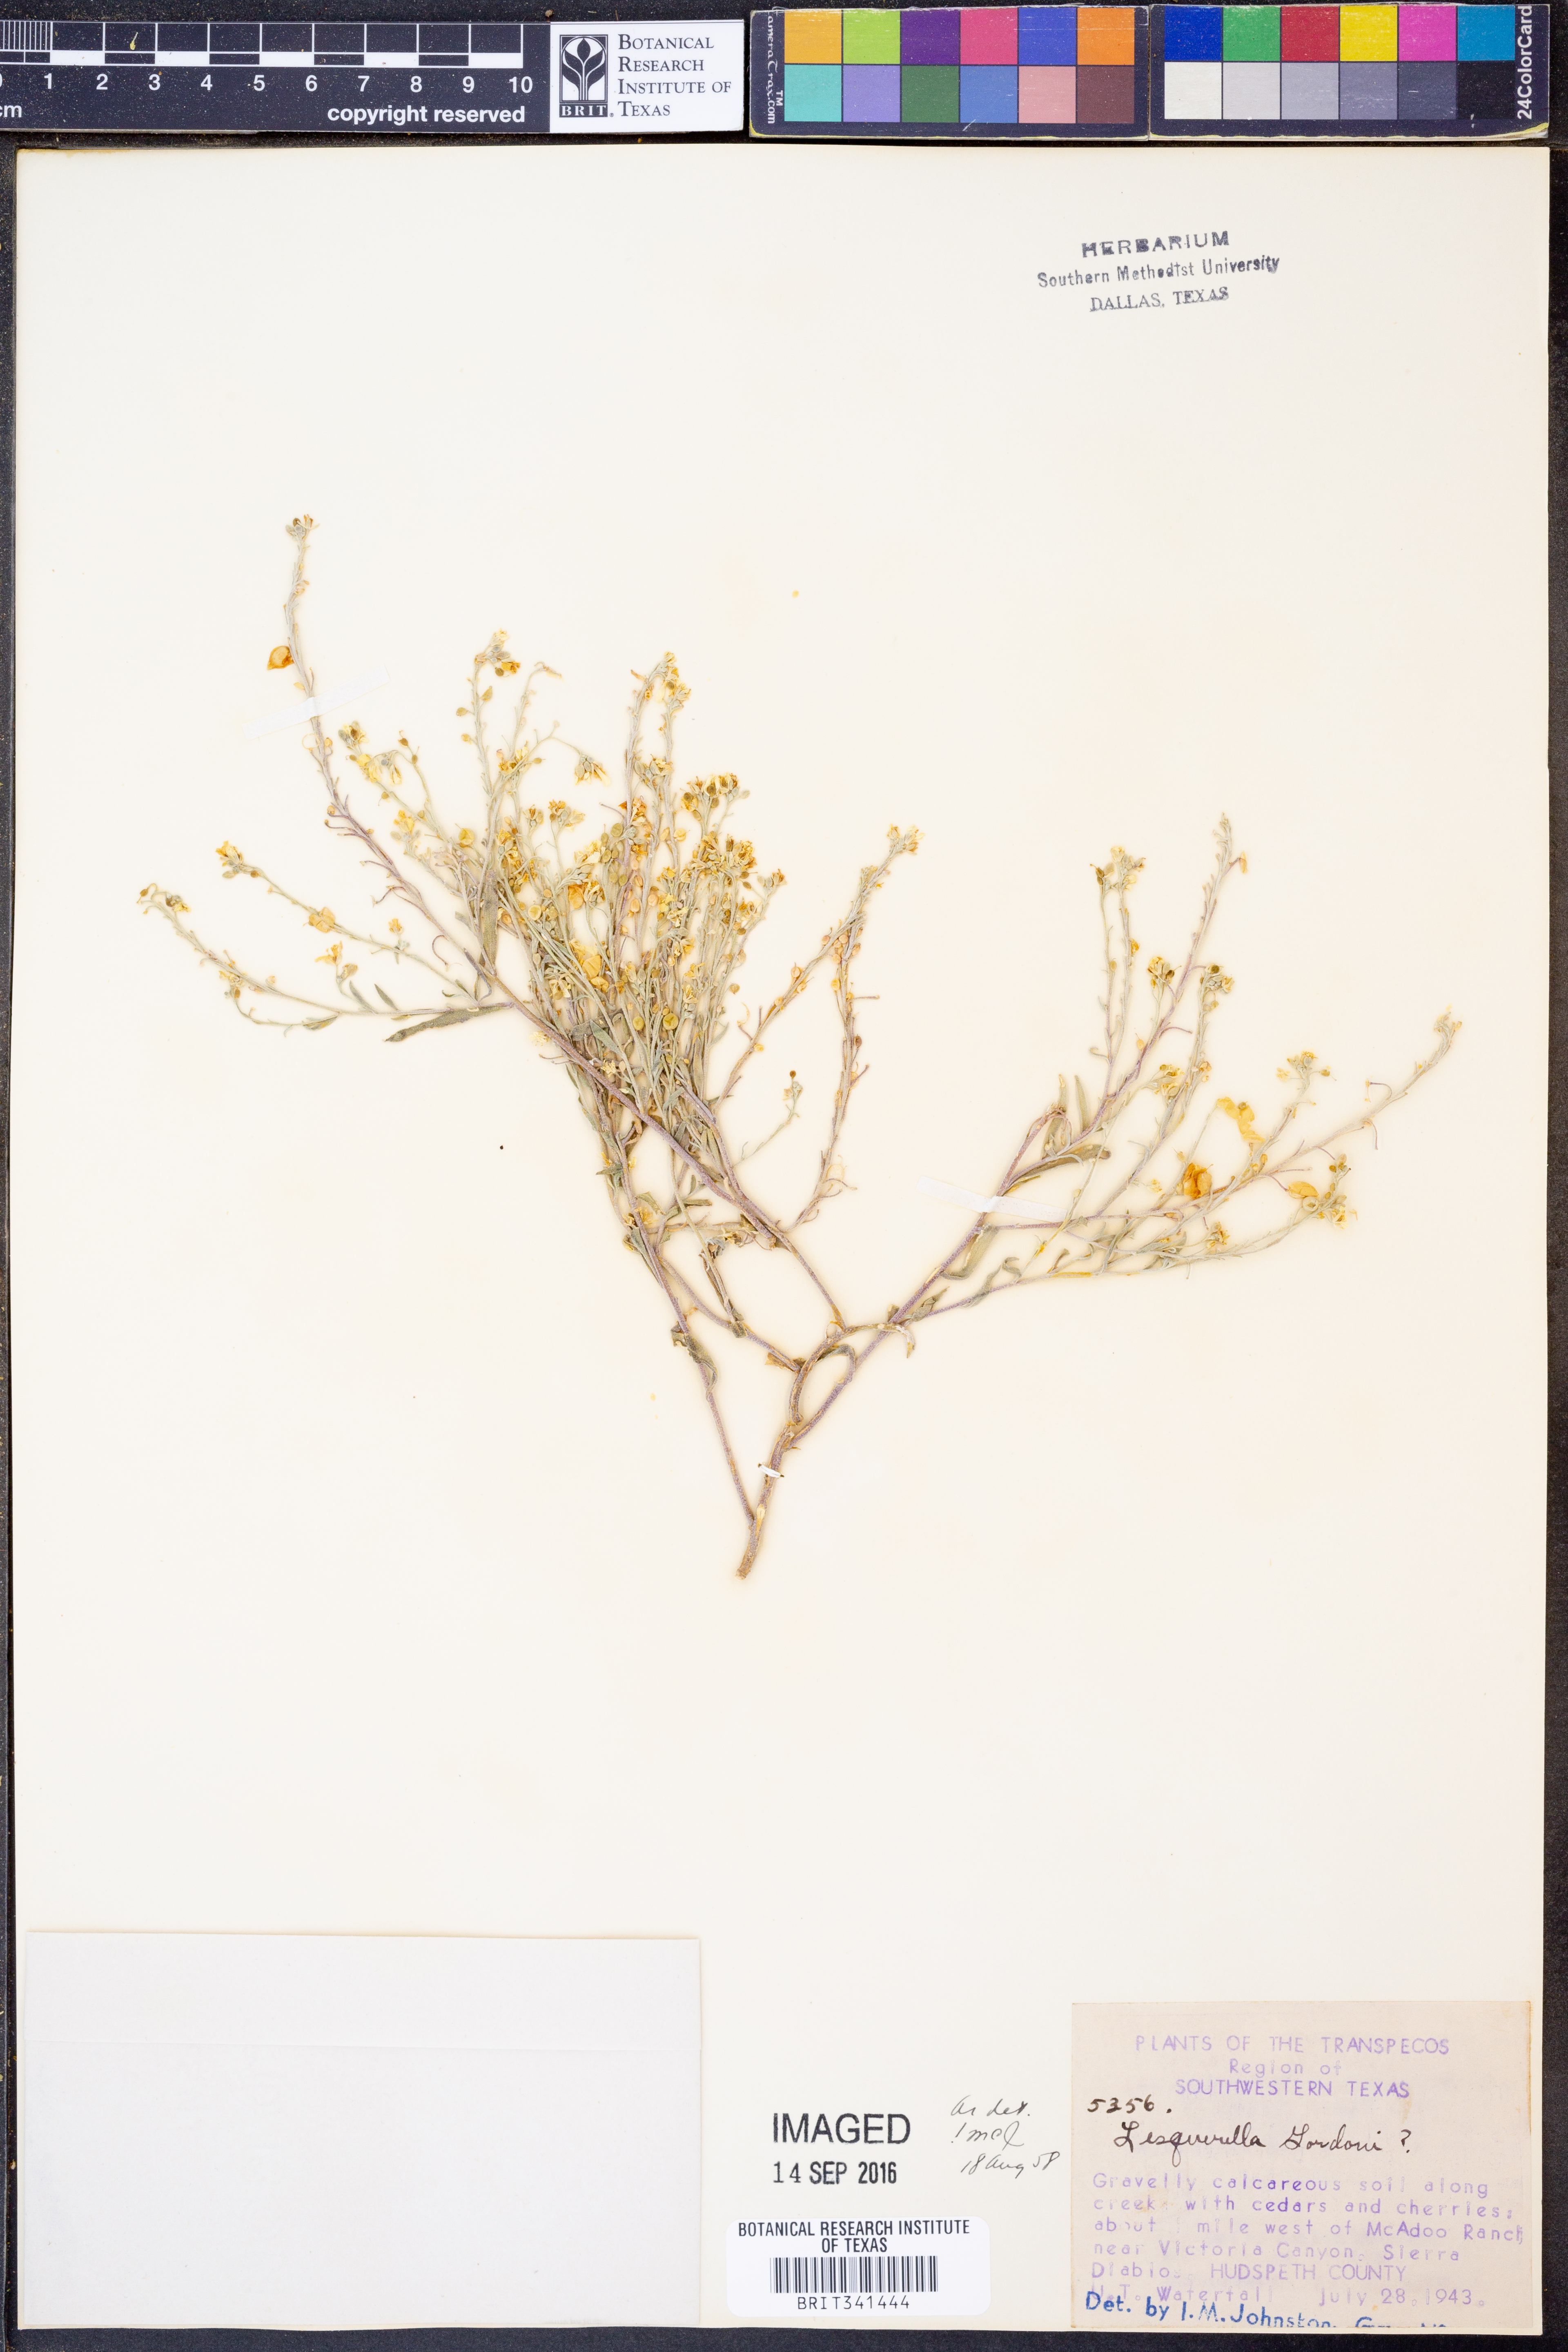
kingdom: Plantae
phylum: Tracheophyta
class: Magnoliopsida
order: Brassicales
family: Brassicaceae
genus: Physaria
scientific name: Physaria gordonii
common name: Gordon's bladderpod
